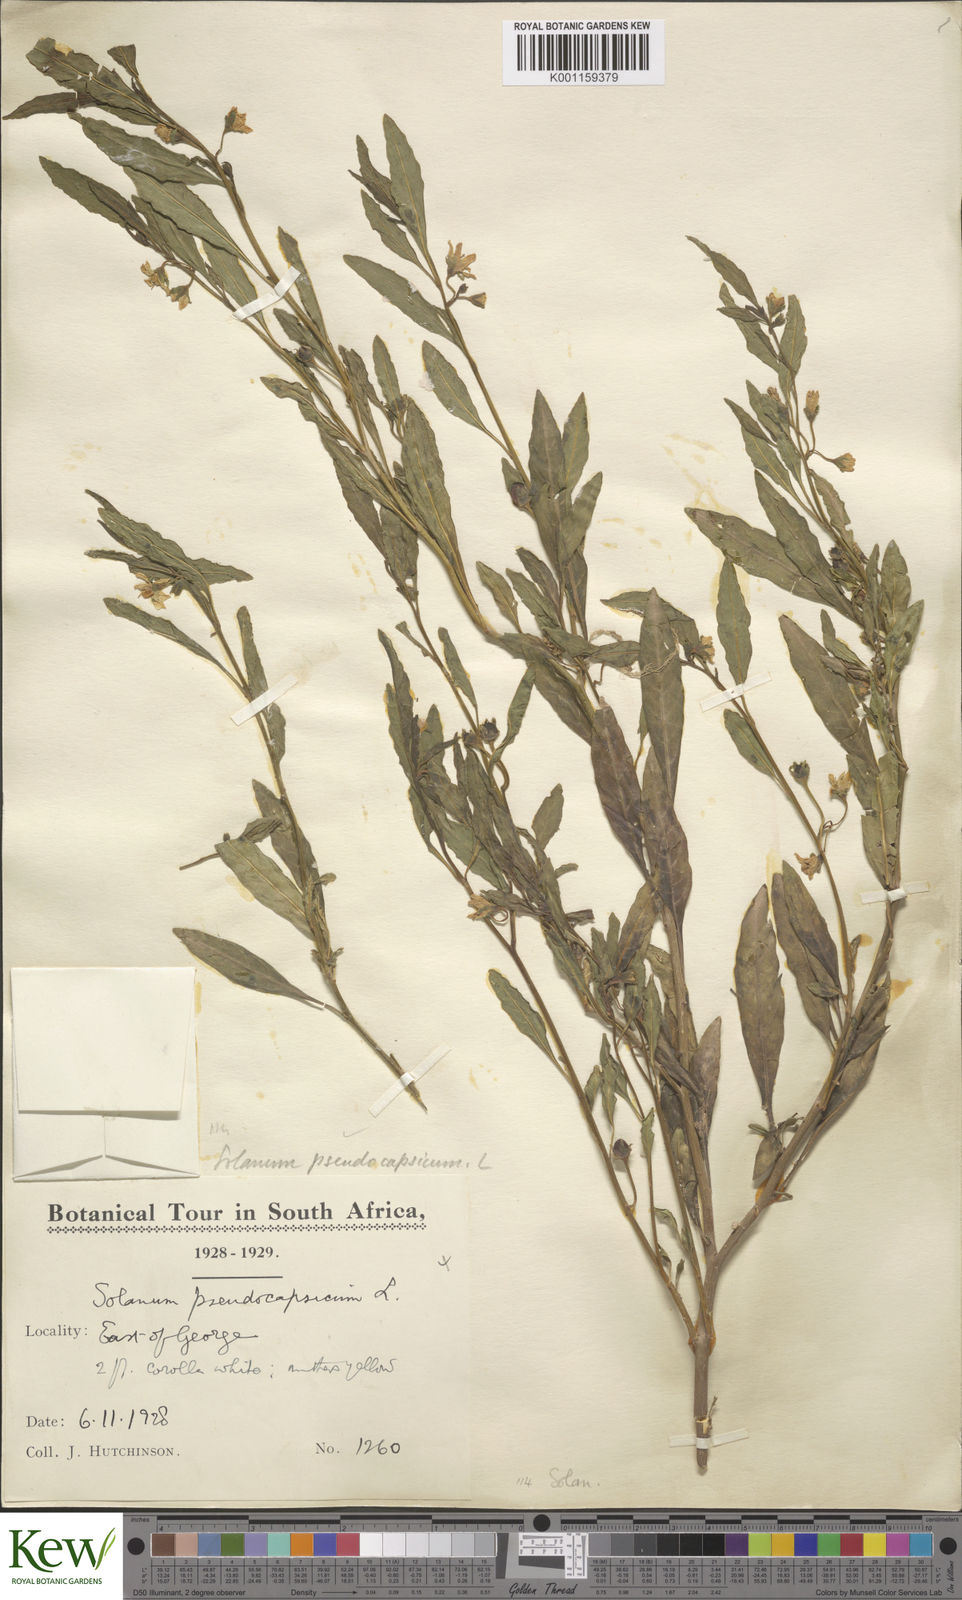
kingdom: Plantae
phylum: Tracheophyta
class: Magnoliopsida
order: Solanales
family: Solanaceae
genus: Solanum
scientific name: Solanum pseudocapsicum
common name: Jerusalem cherry
